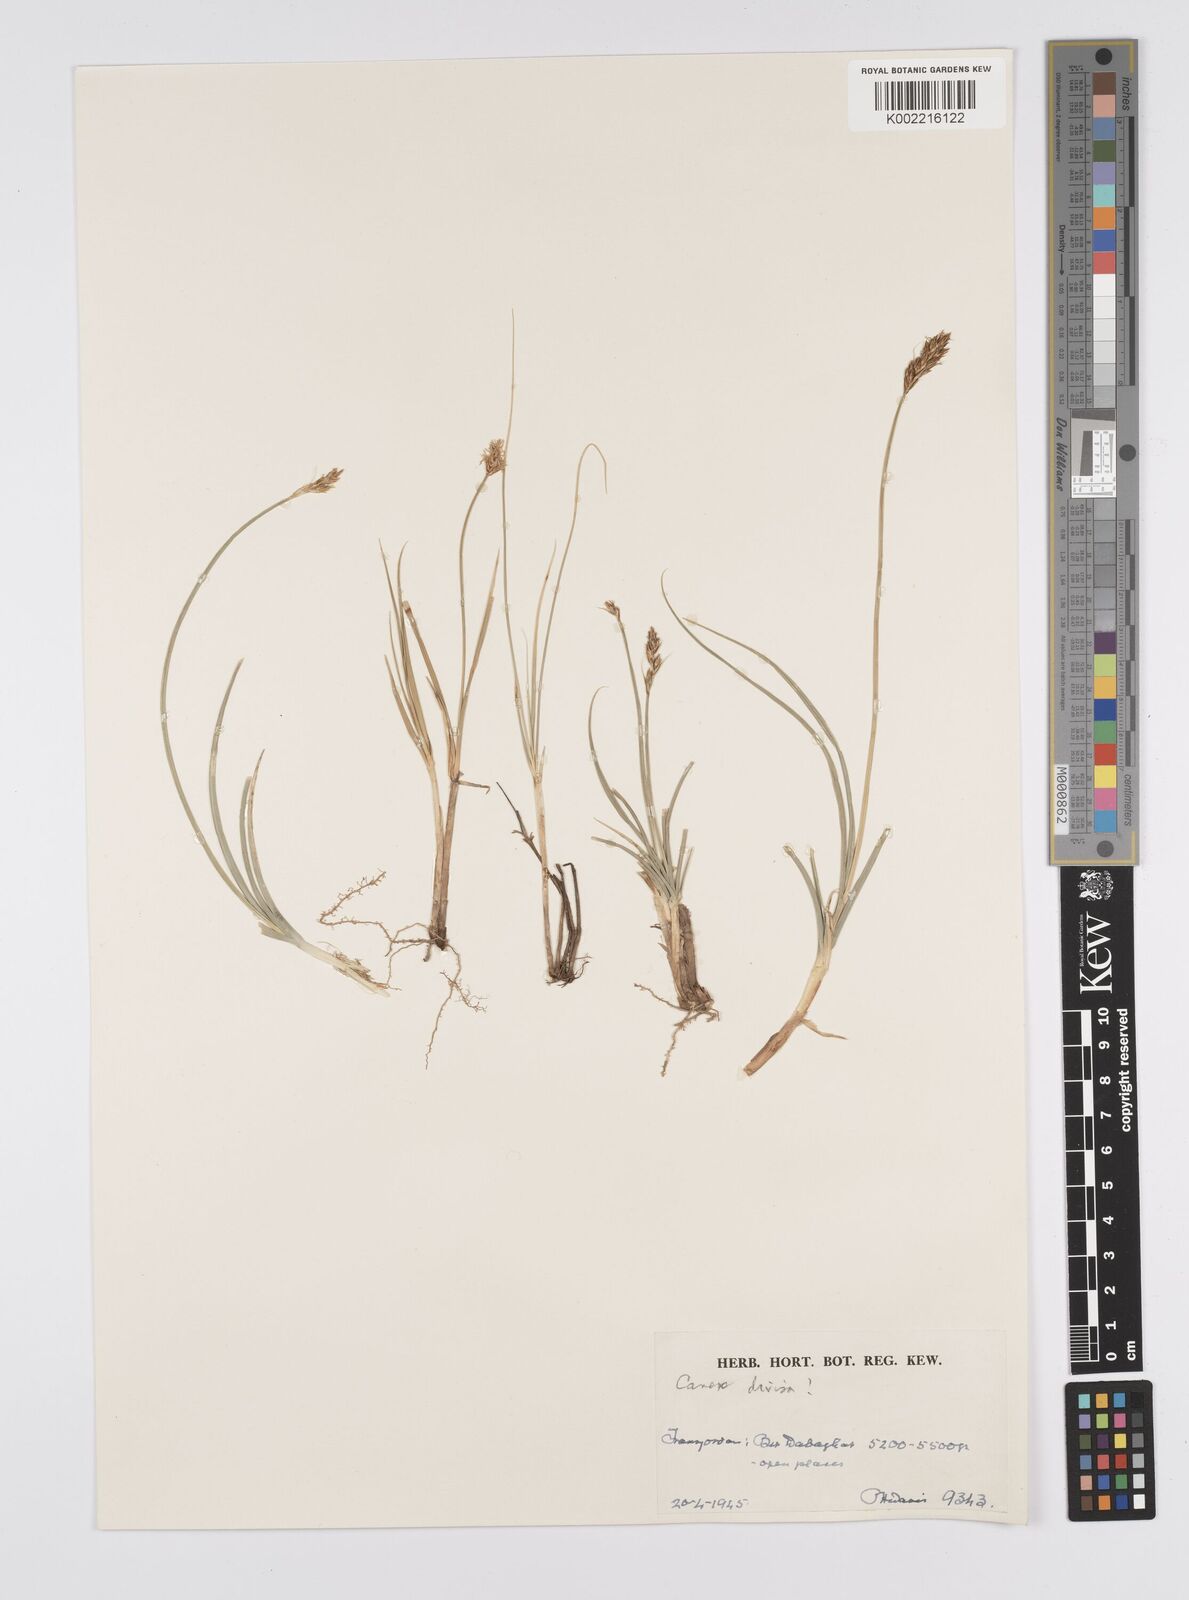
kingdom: Plantae
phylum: Tracheophyta
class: Liliopsida
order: Poales
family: Cyperaceae
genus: Carex
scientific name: Carex divisa
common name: Divided sedge
